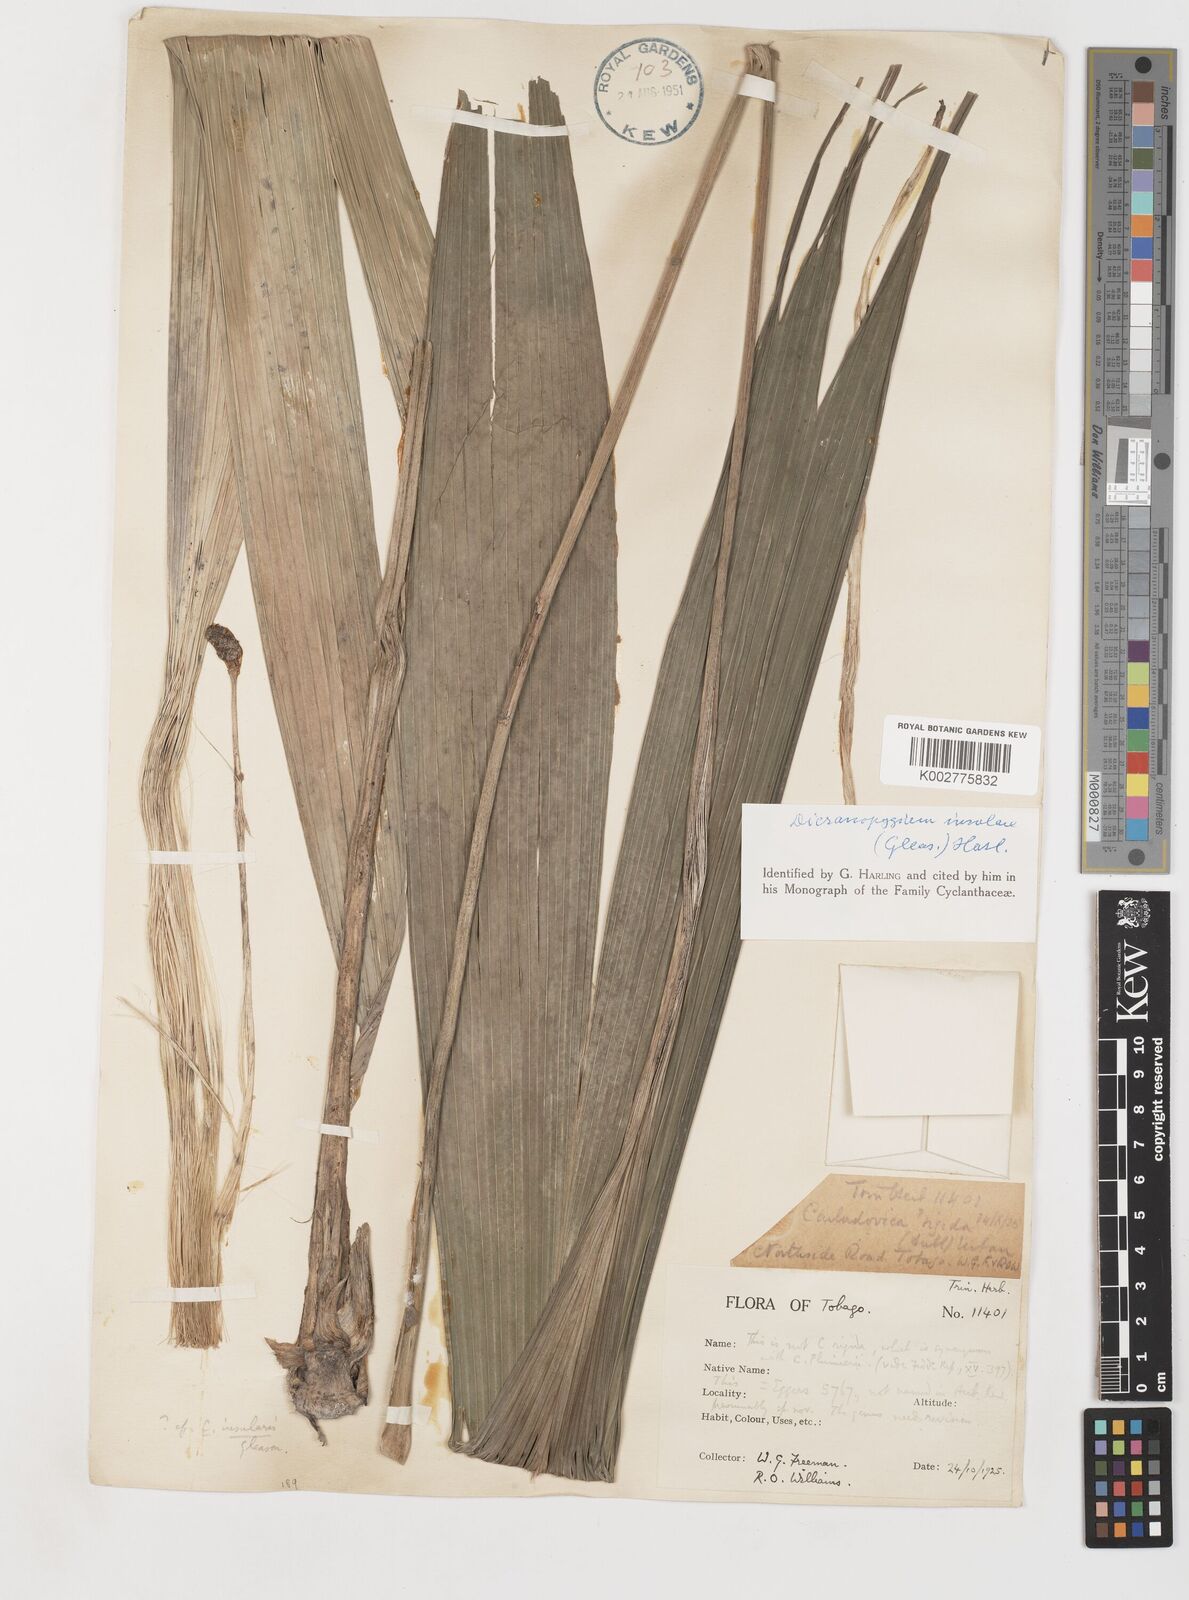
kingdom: Plantae
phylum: Tracheophyta
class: Liliopsida
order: Pandanales
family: Cyclanthaceae
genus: Dicranopygium
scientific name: Dicranopygium insulare
